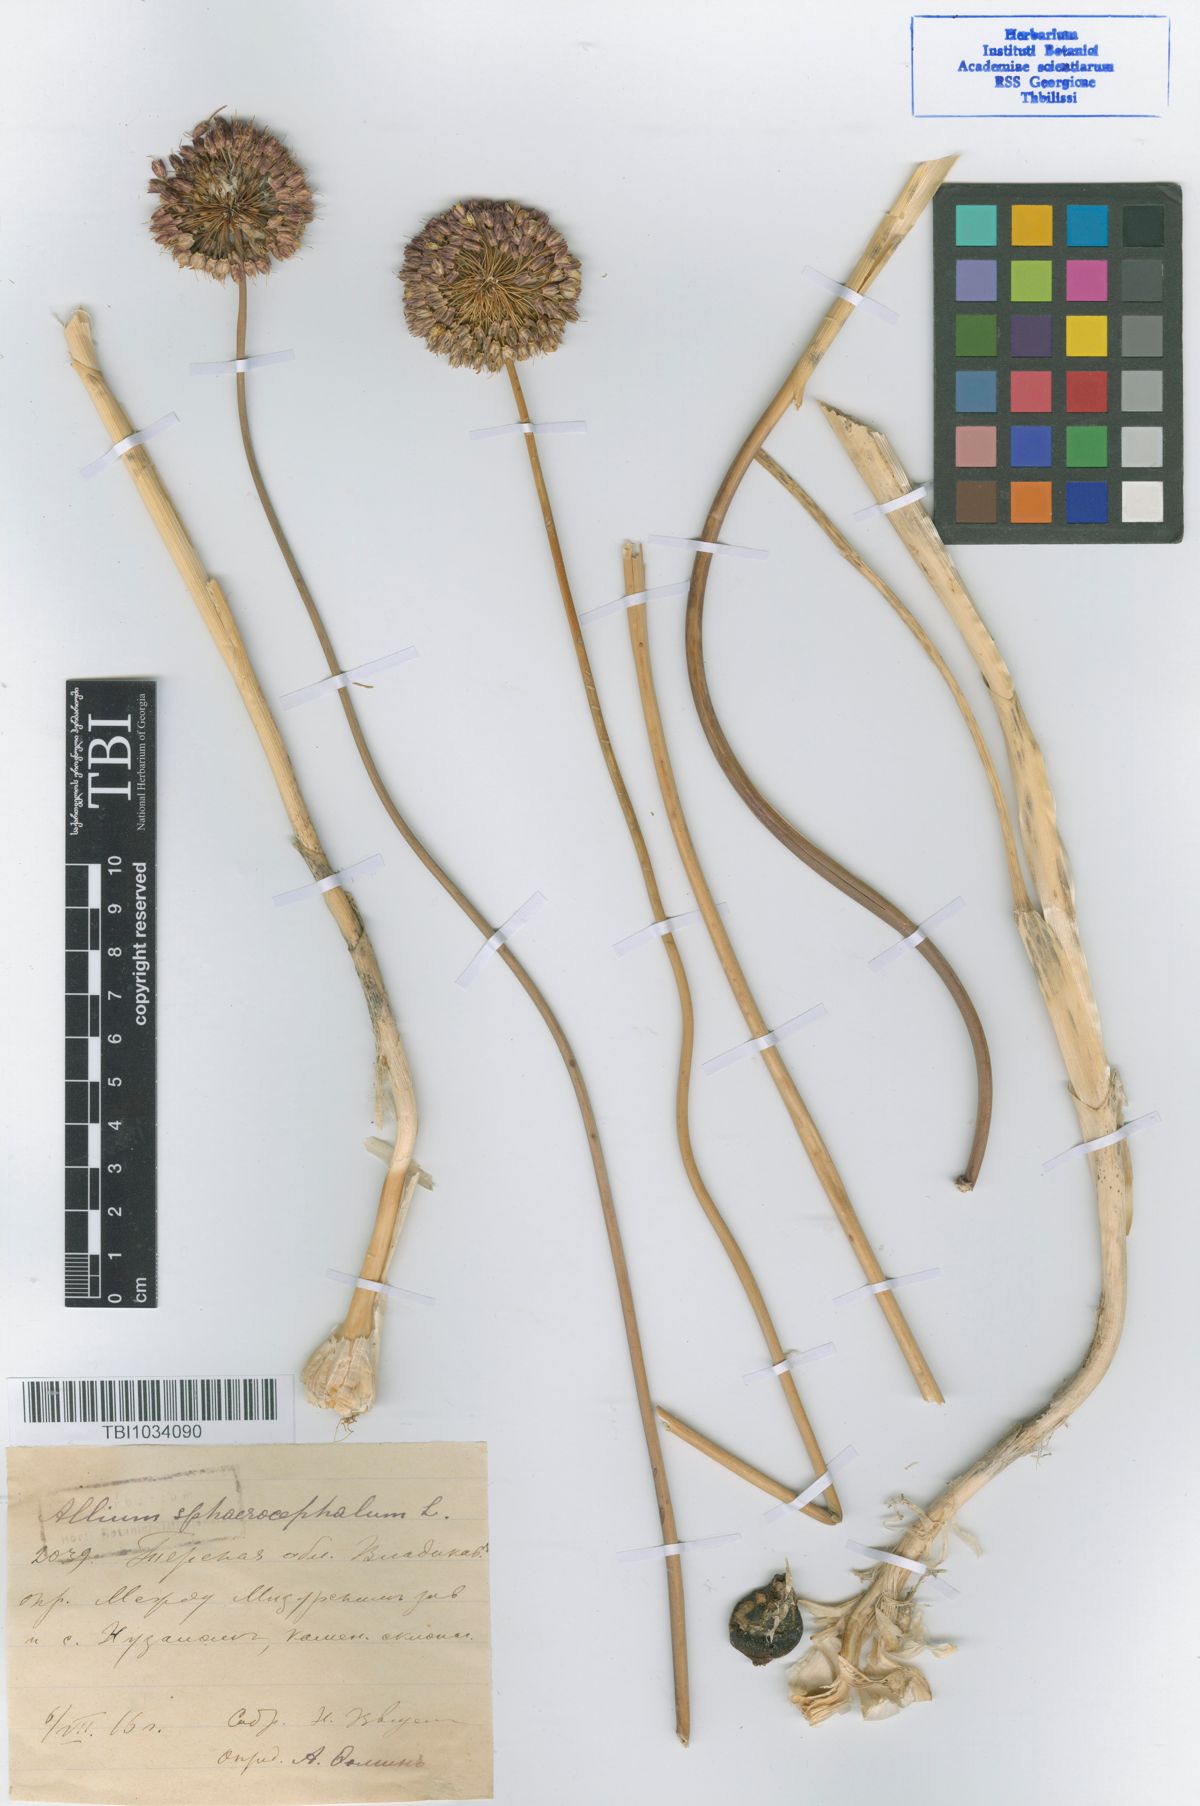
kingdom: Plantae
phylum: Tracheophyta
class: Liliopsida
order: Asparagales
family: Amaryllidaceae
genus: Allium
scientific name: Allium sphaerocephalon
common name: Round-headed leek
